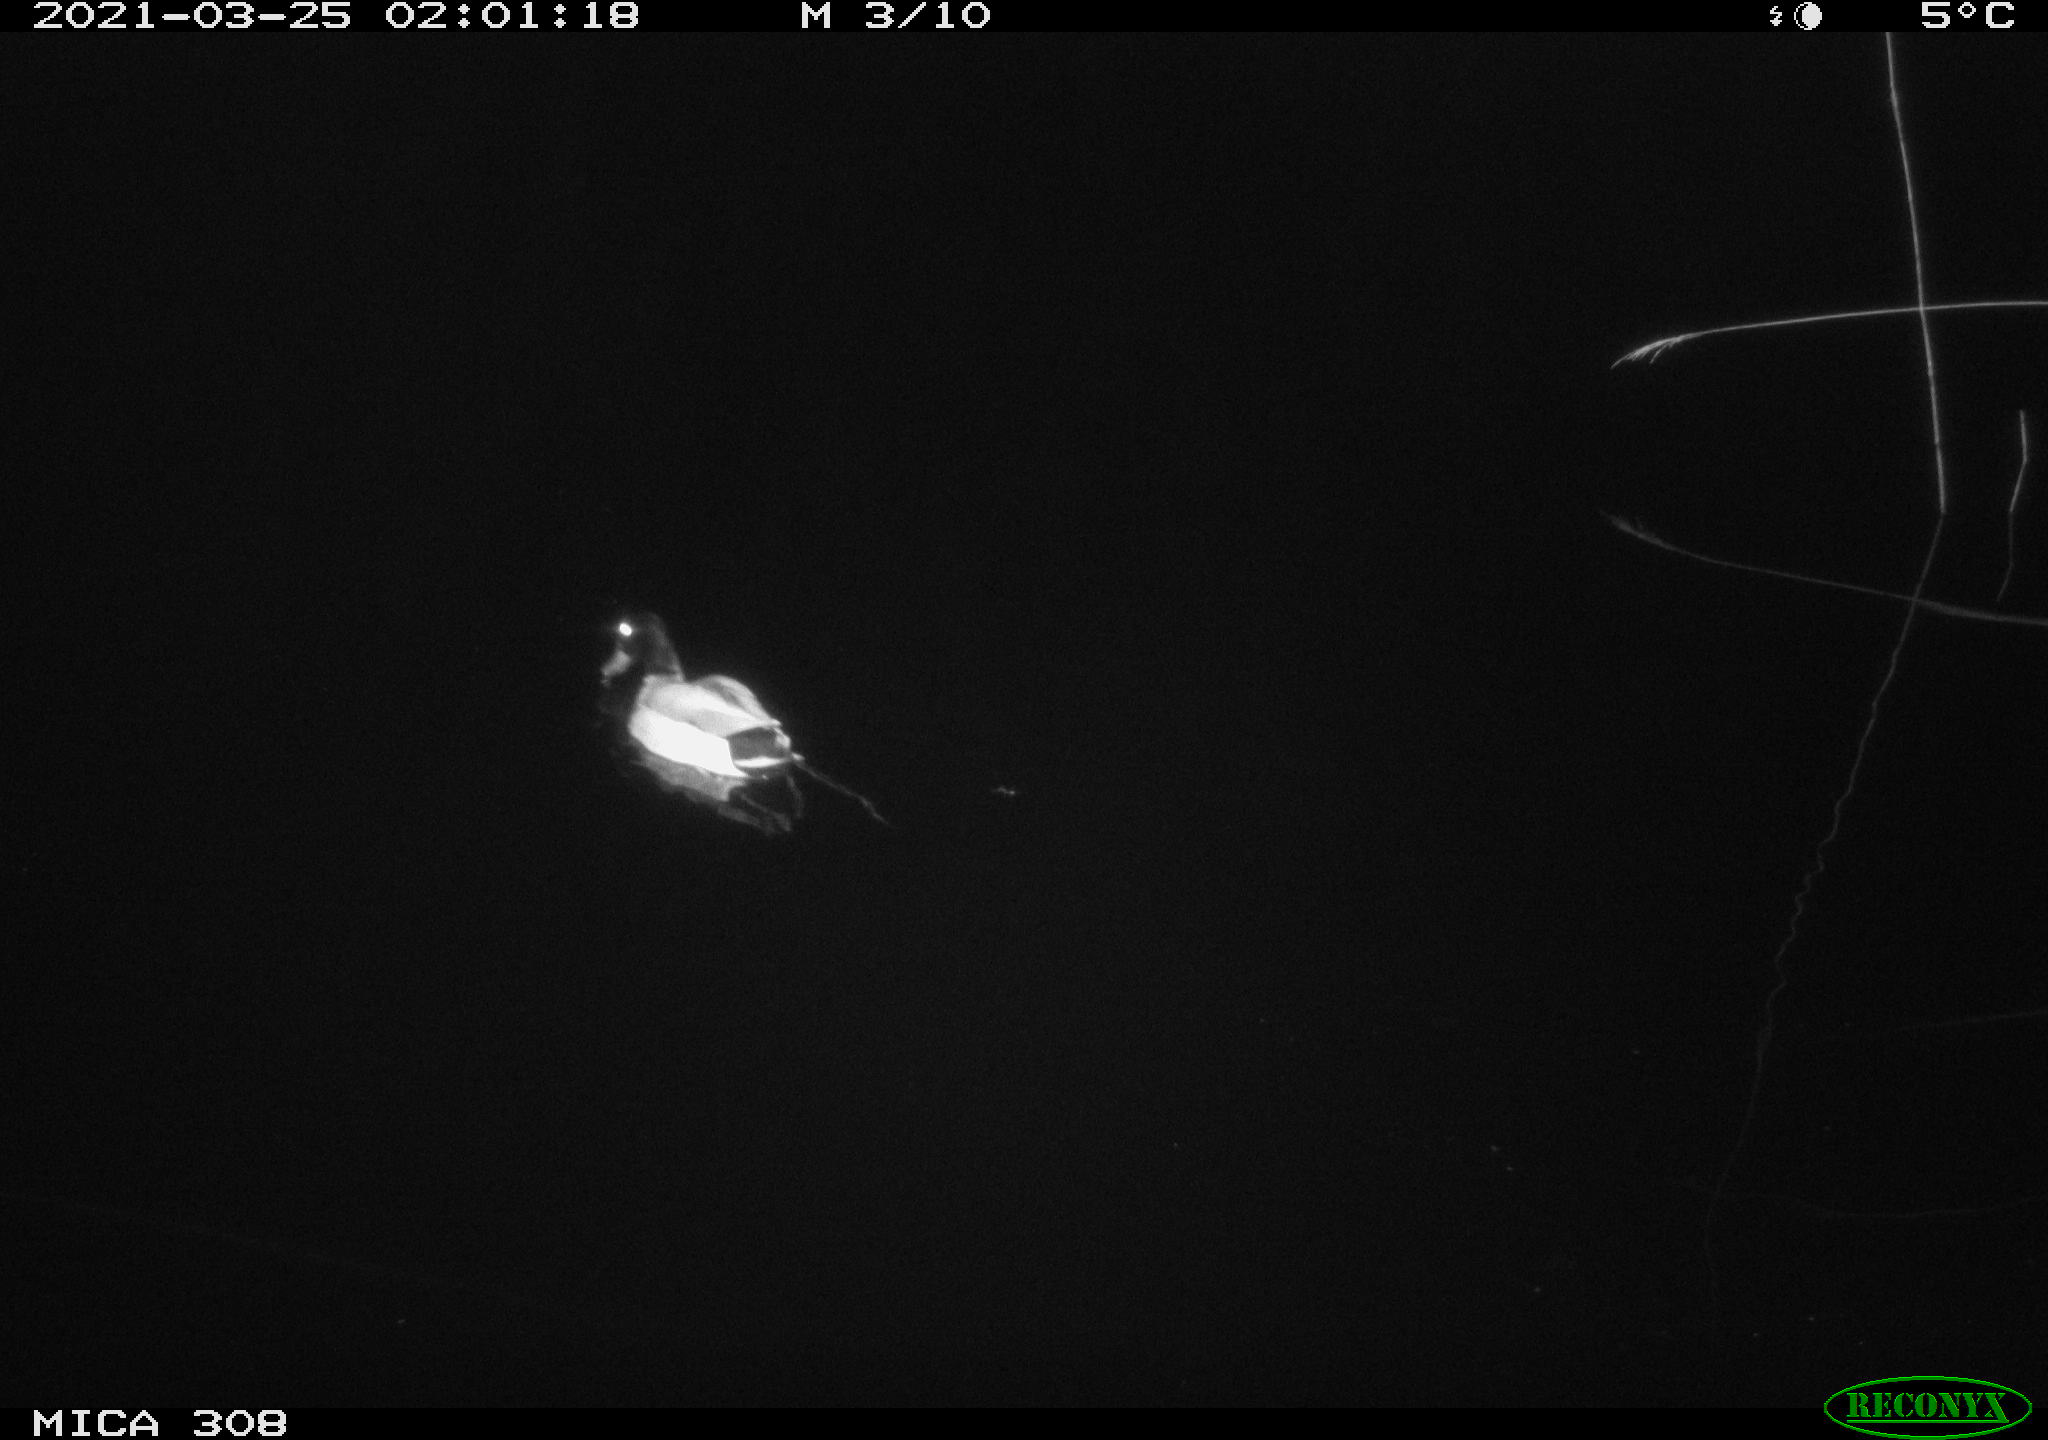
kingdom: Animalia
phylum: Chordata
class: Aves
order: Anseriformes
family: Anatidae
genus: Anas
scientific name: Anas platyrhynchos
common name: Mallard
